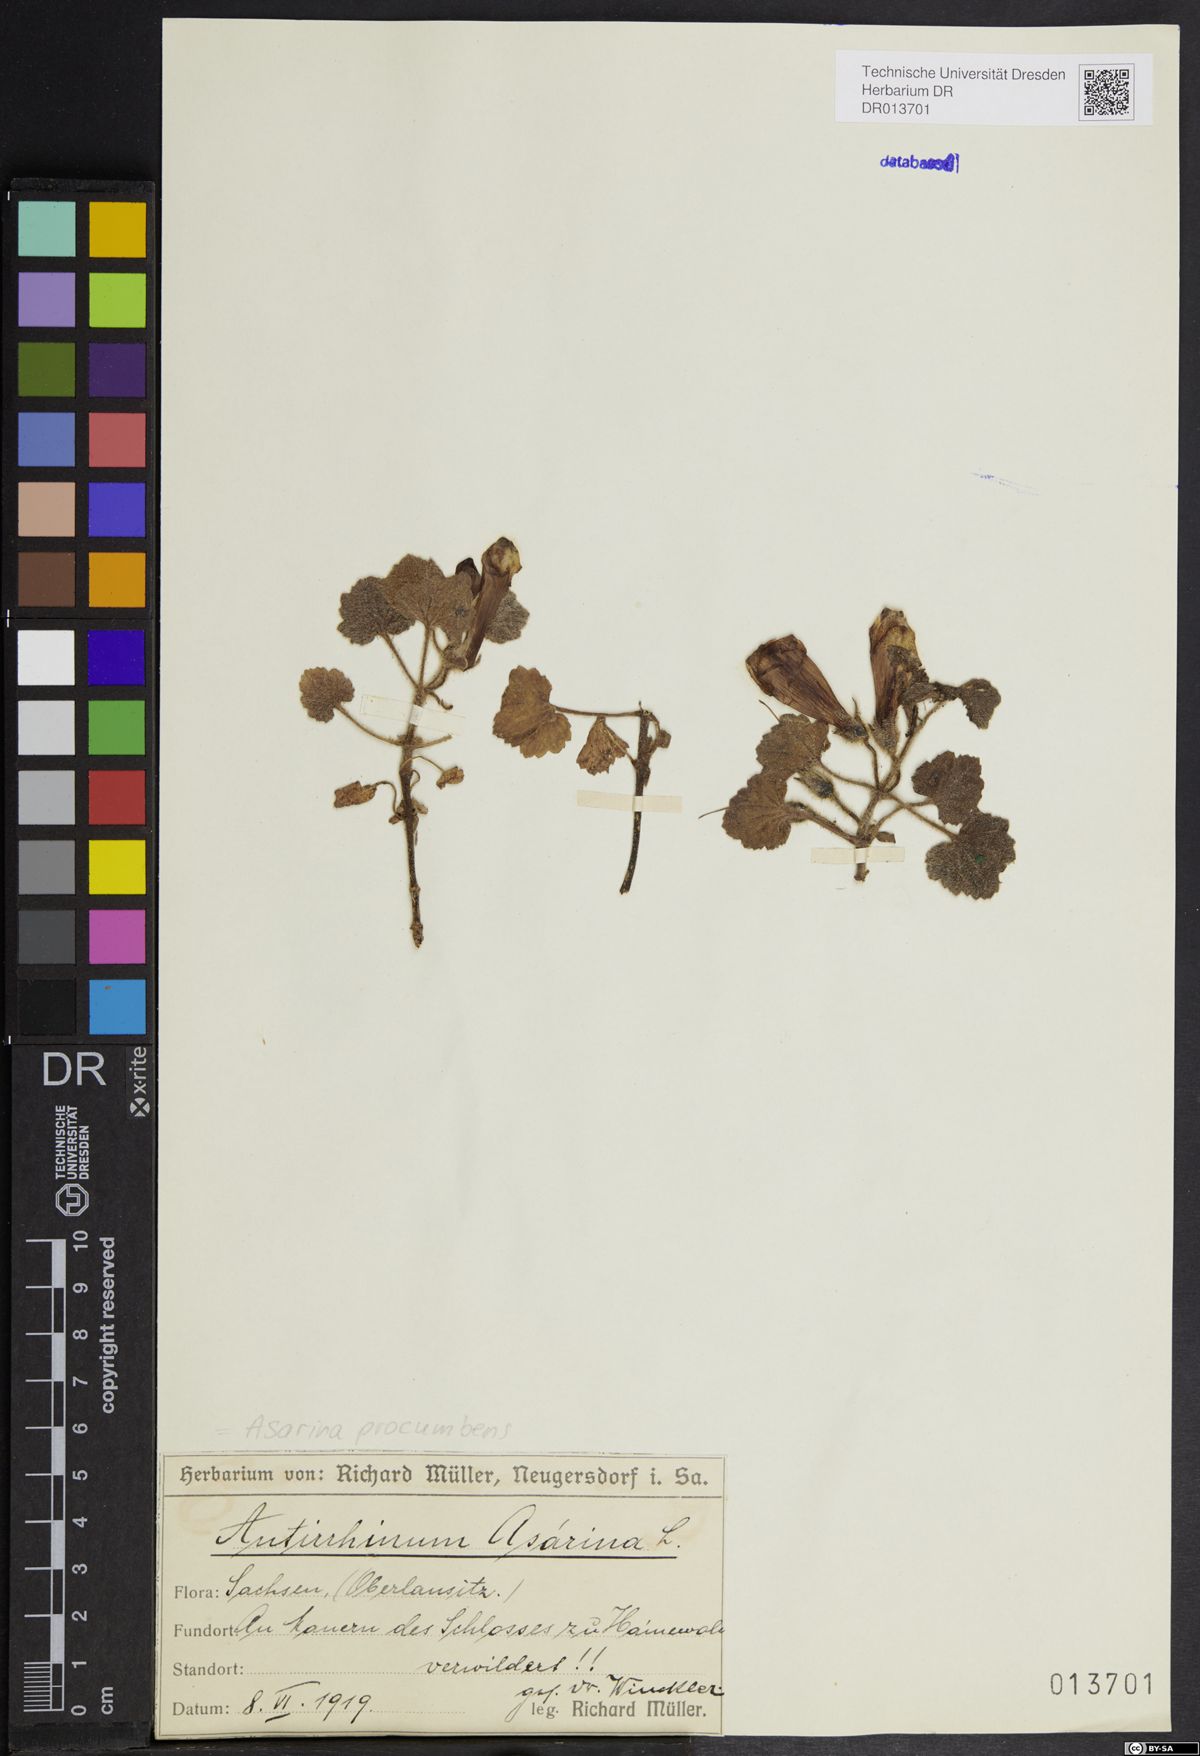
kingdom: Plantae
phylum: Tracheophyta
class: Magnoliopsida
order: Lamiales
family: Plantaginaceae
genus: Asarina
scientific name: Asarina procumbens
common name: Trailing snapdragon
